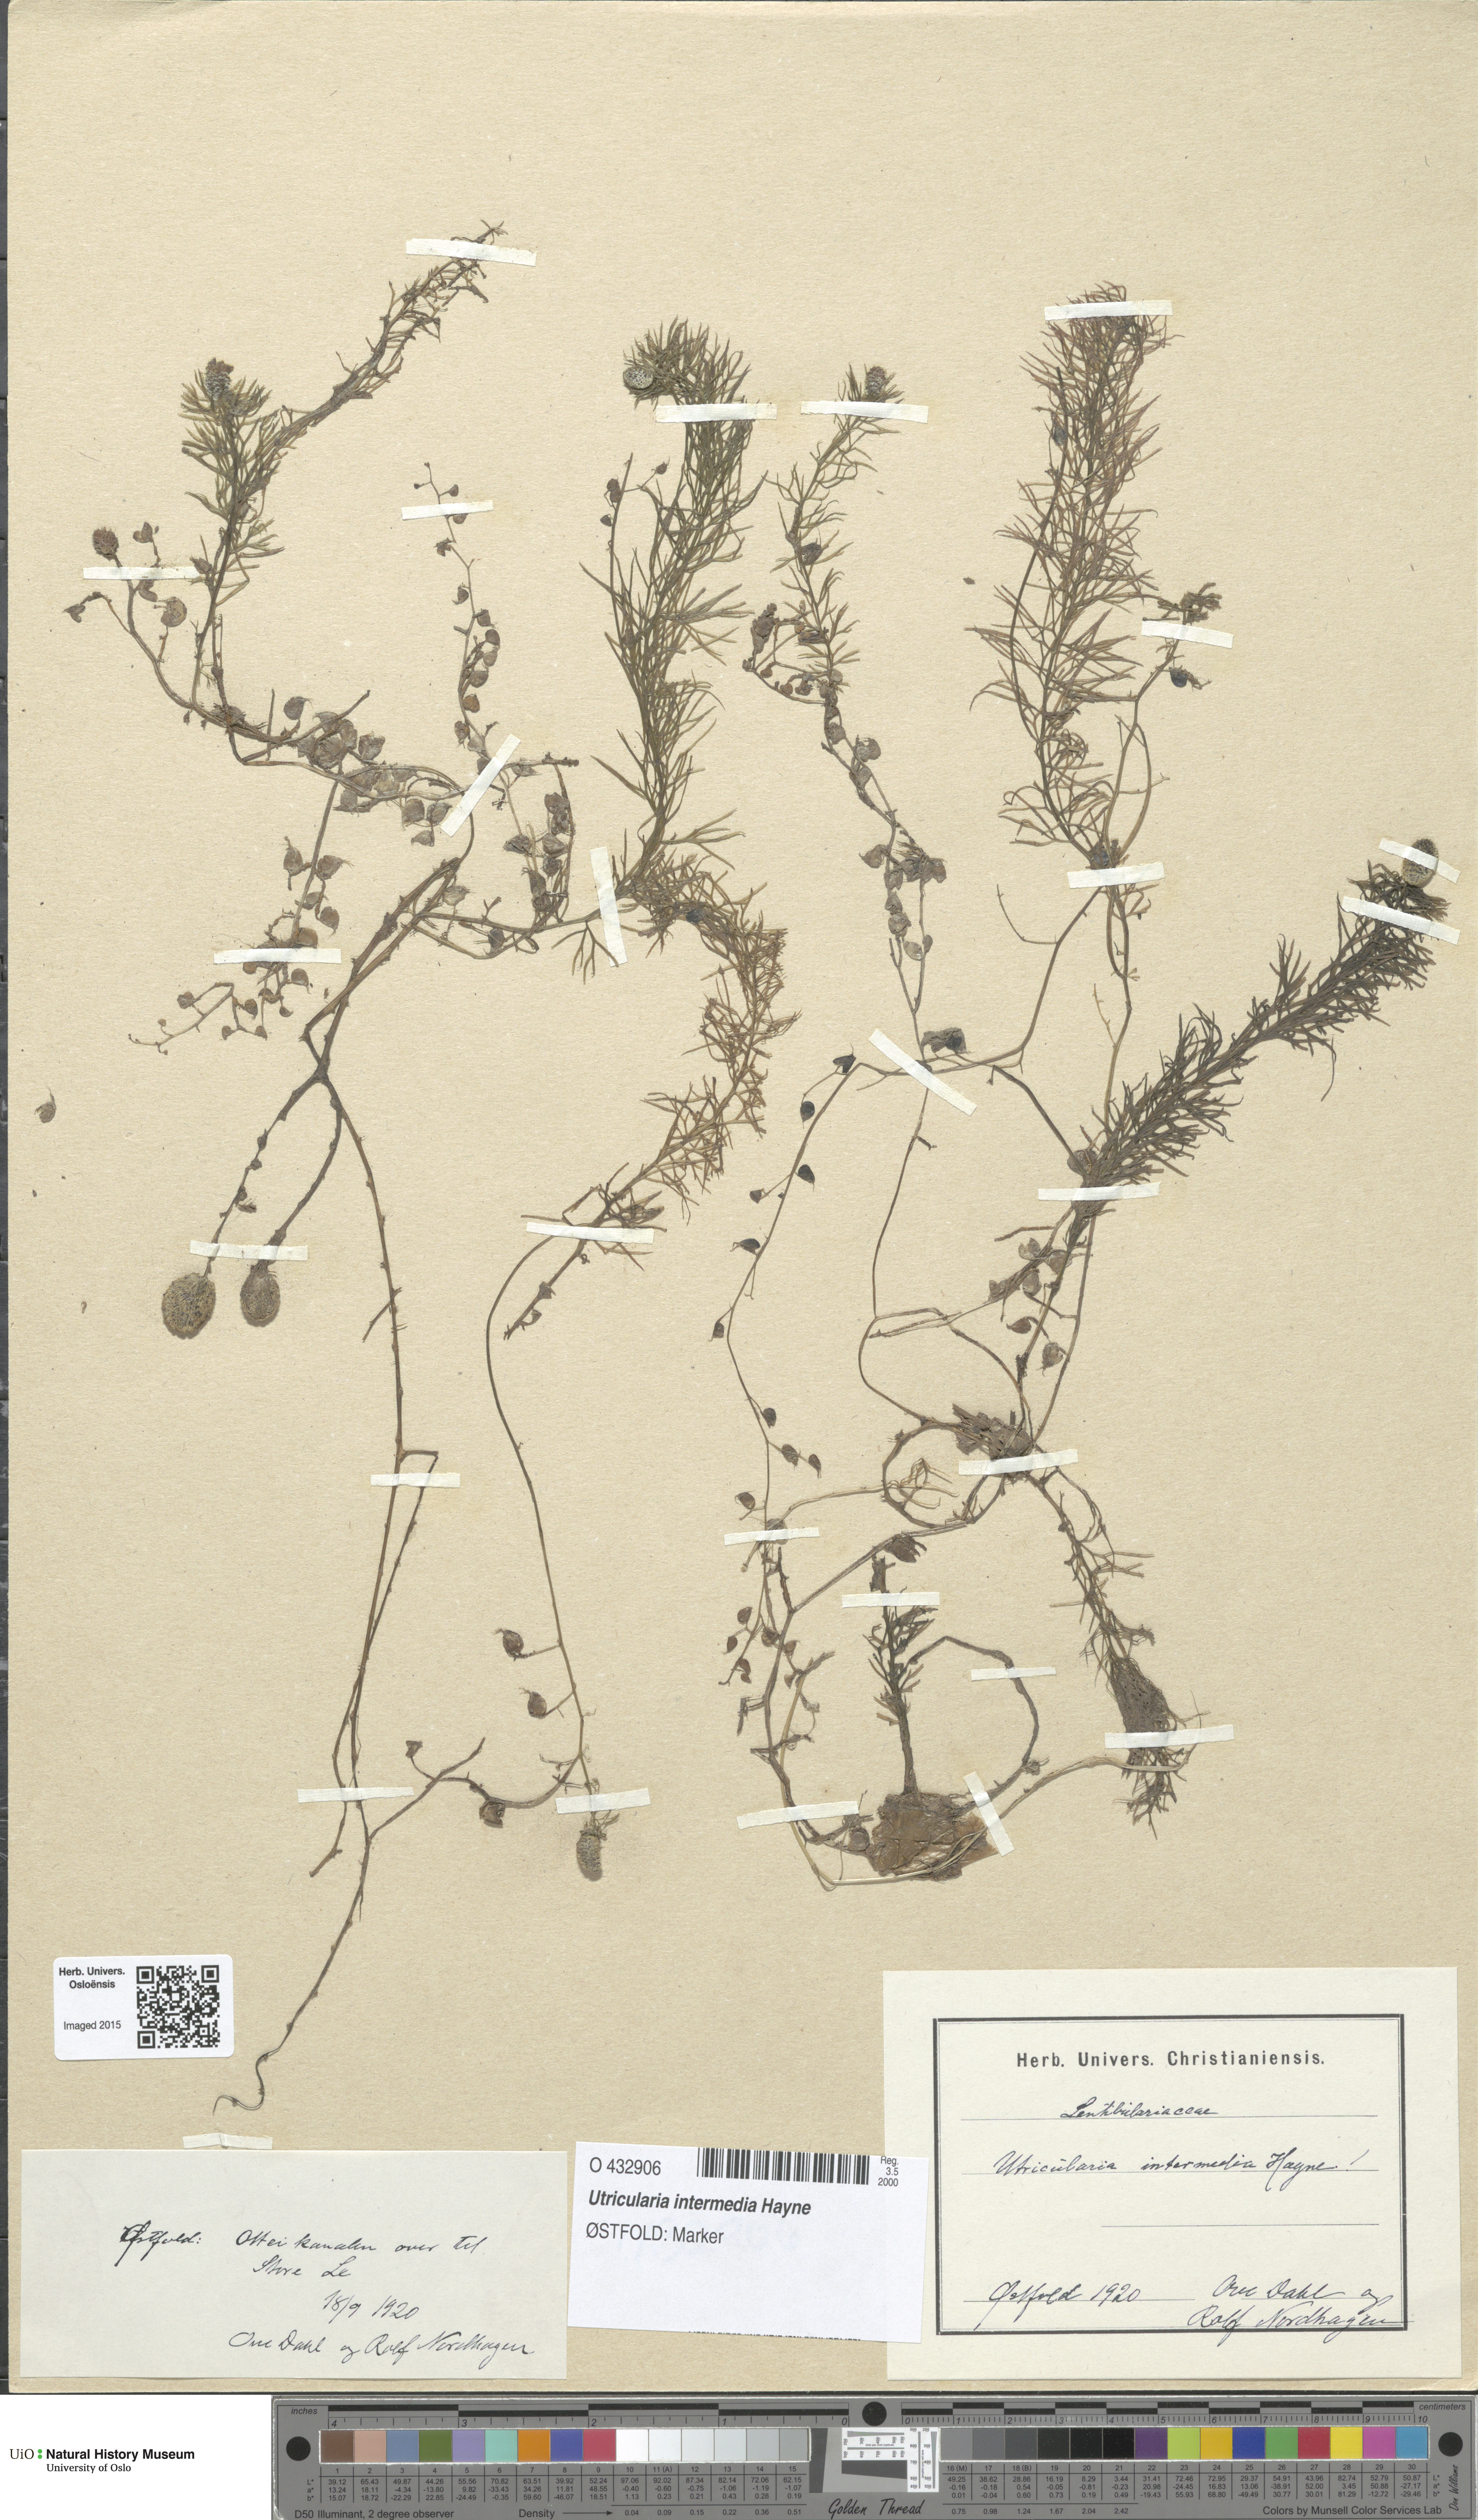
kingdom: Plantae
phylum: Tracheophyta
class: Magnoliopsida
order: Lamiales
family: Lentibulariaceae
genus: Utricularia
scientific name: Utricularia intermedia
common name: Intermediate bladderwort
